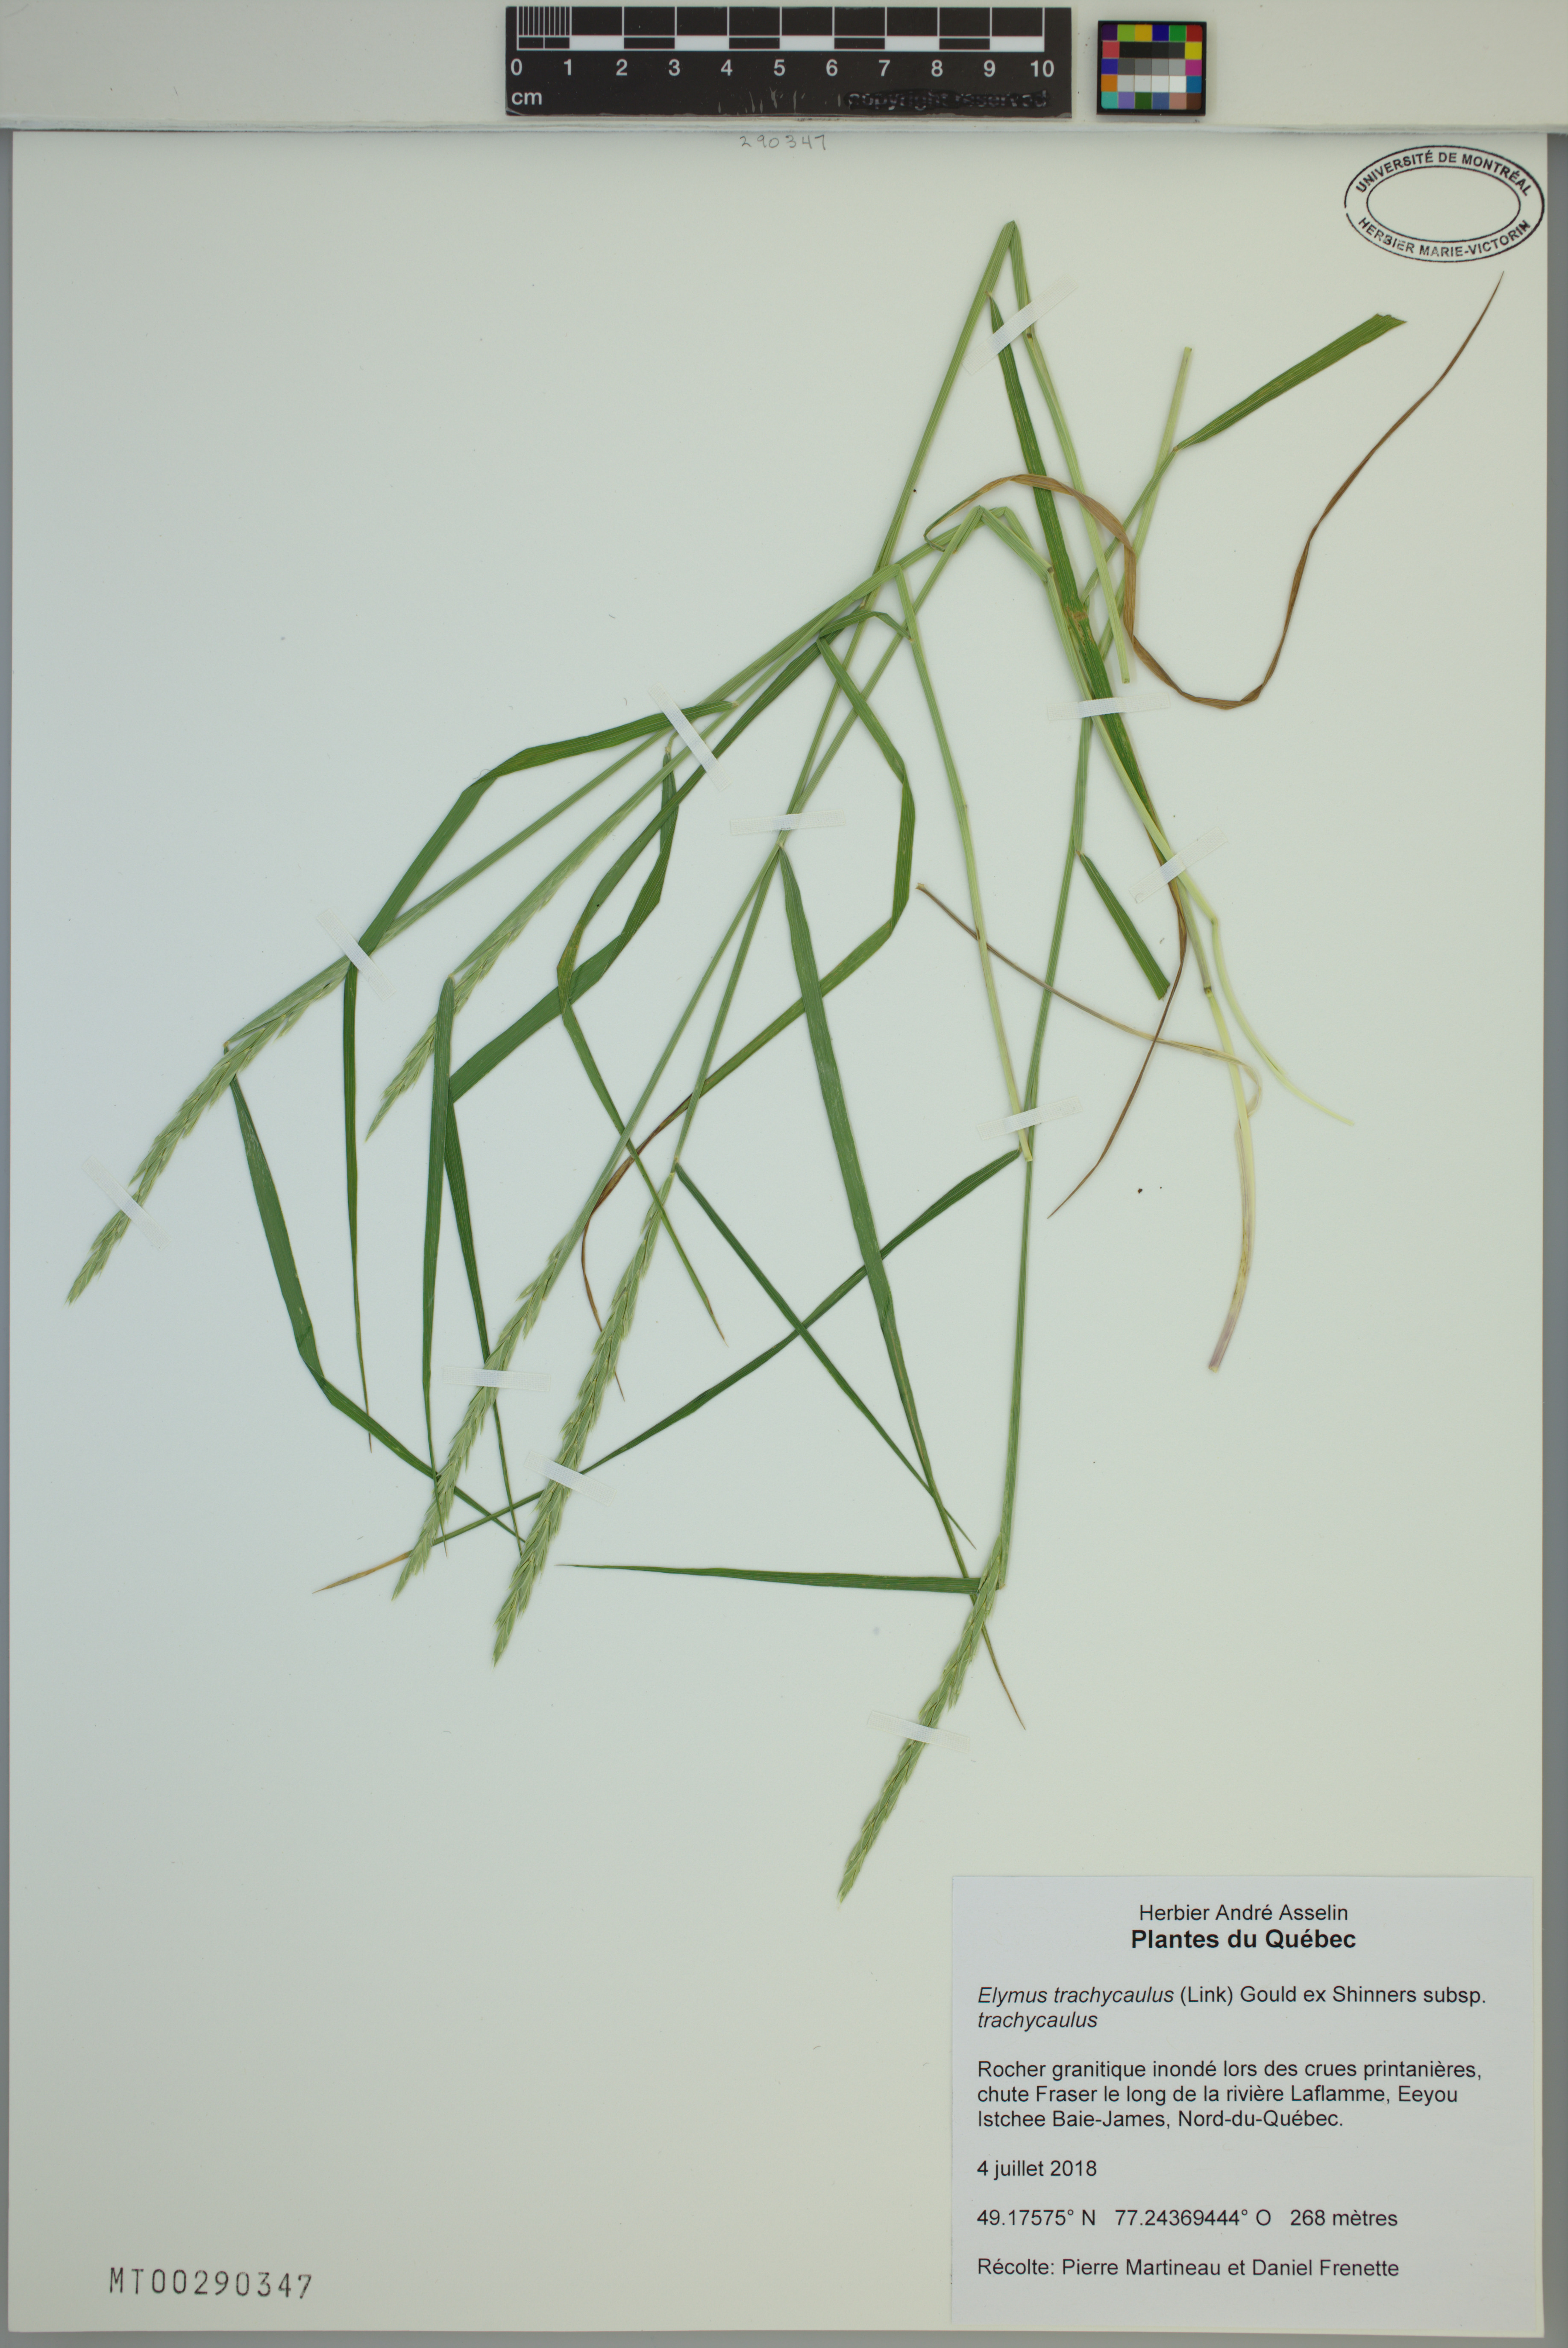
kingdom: Plantae
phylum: Tracheophyta
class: Liliopsida
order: Poales
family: Poaceae
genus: Elymus
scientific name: Elymus violaceus
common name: Arctic wheatgrass
